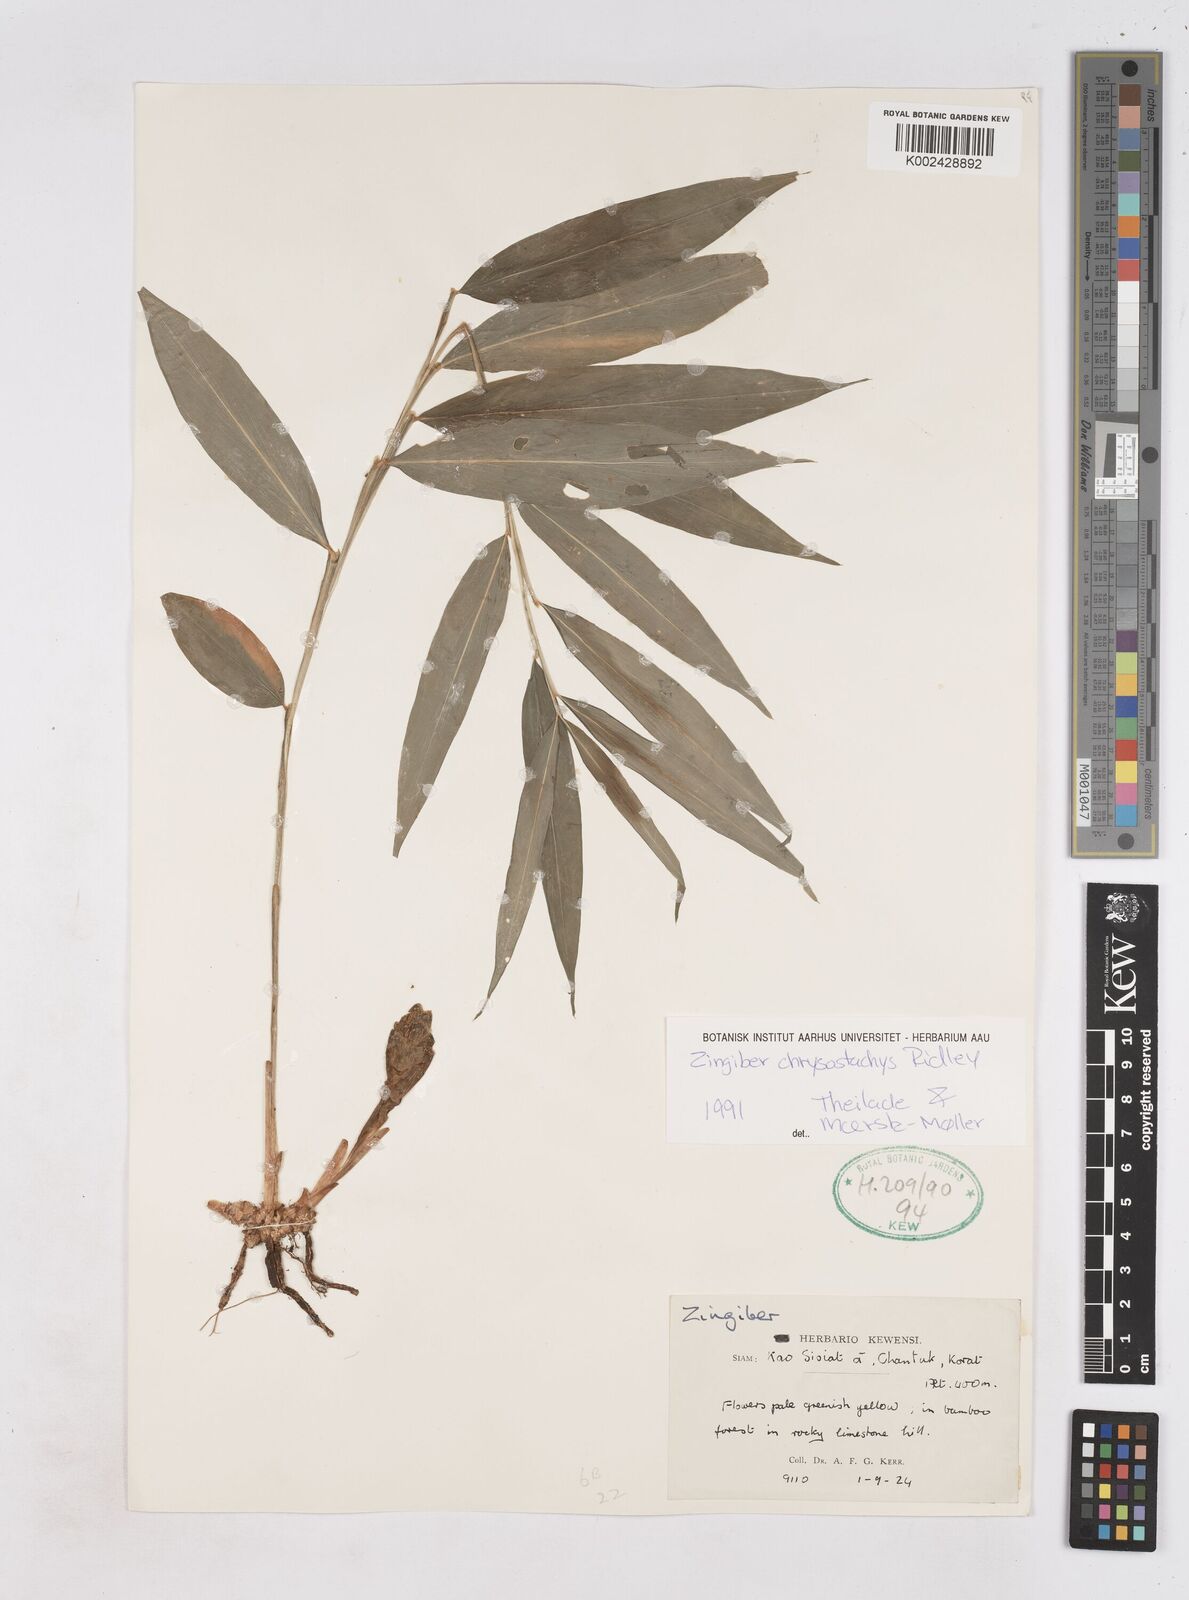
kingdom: Plantae
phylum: Tracheophyta
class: Liliopsida
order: Zingiberales
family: Zingiberaceae
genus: Zingiber
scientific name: Zingiber chrysostachys
